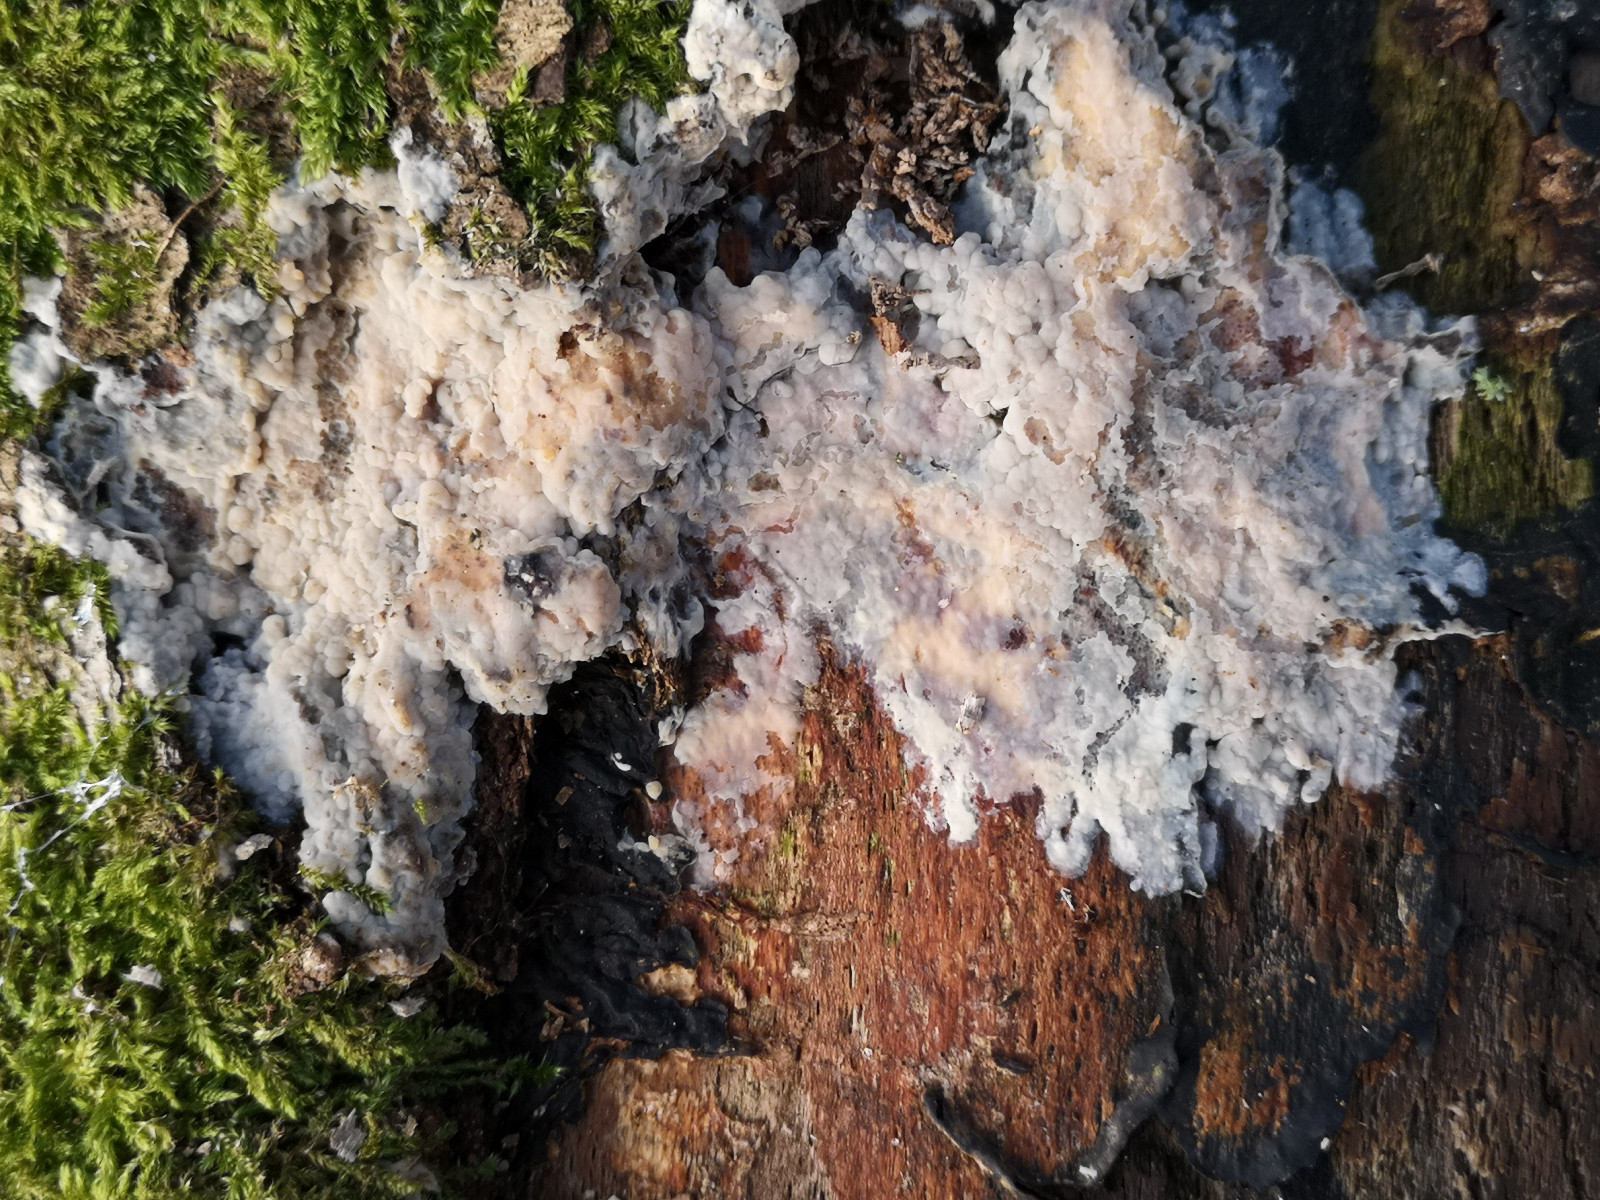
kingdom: Fungi
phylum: Basidiomycota
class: Agaricomycetes
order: Corticiales
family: Corticiaceae
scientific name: Corticiaceae
